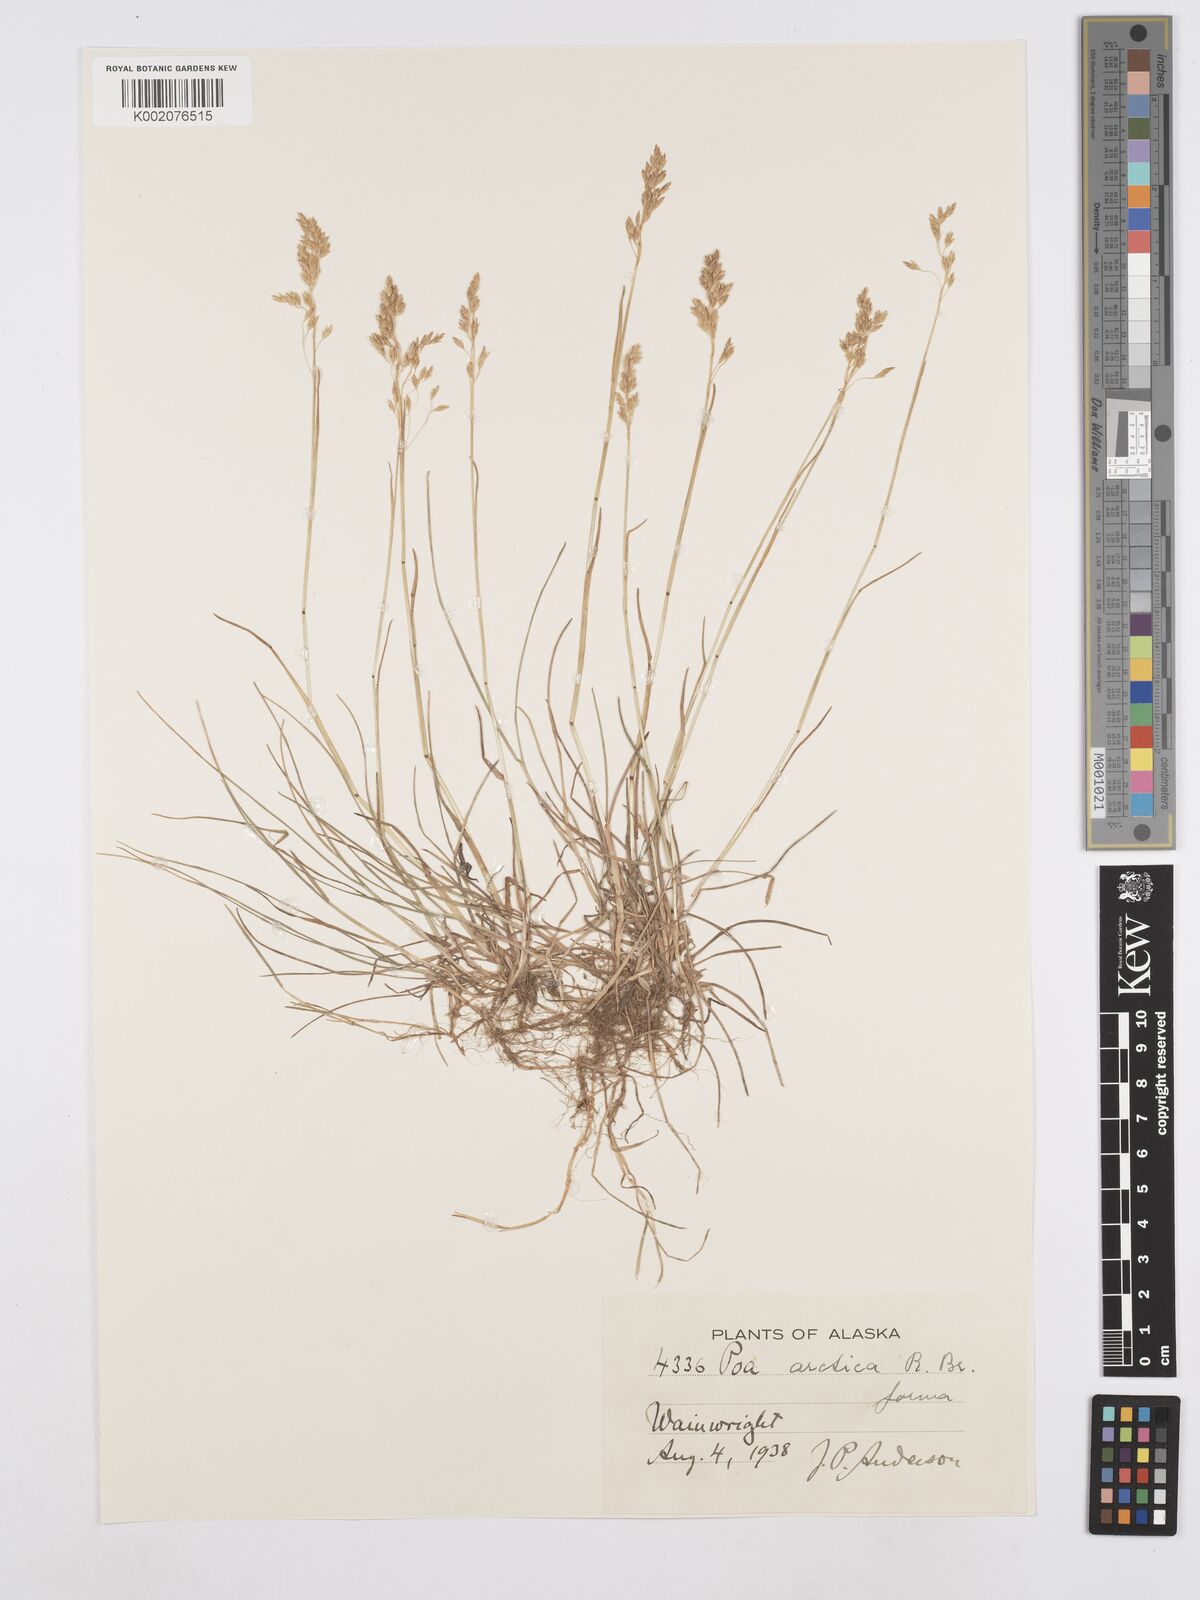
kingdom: Plantae
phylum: Tracheophyta
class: Liliopsida
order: Poales
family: Poaceae
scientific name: Poaceae
